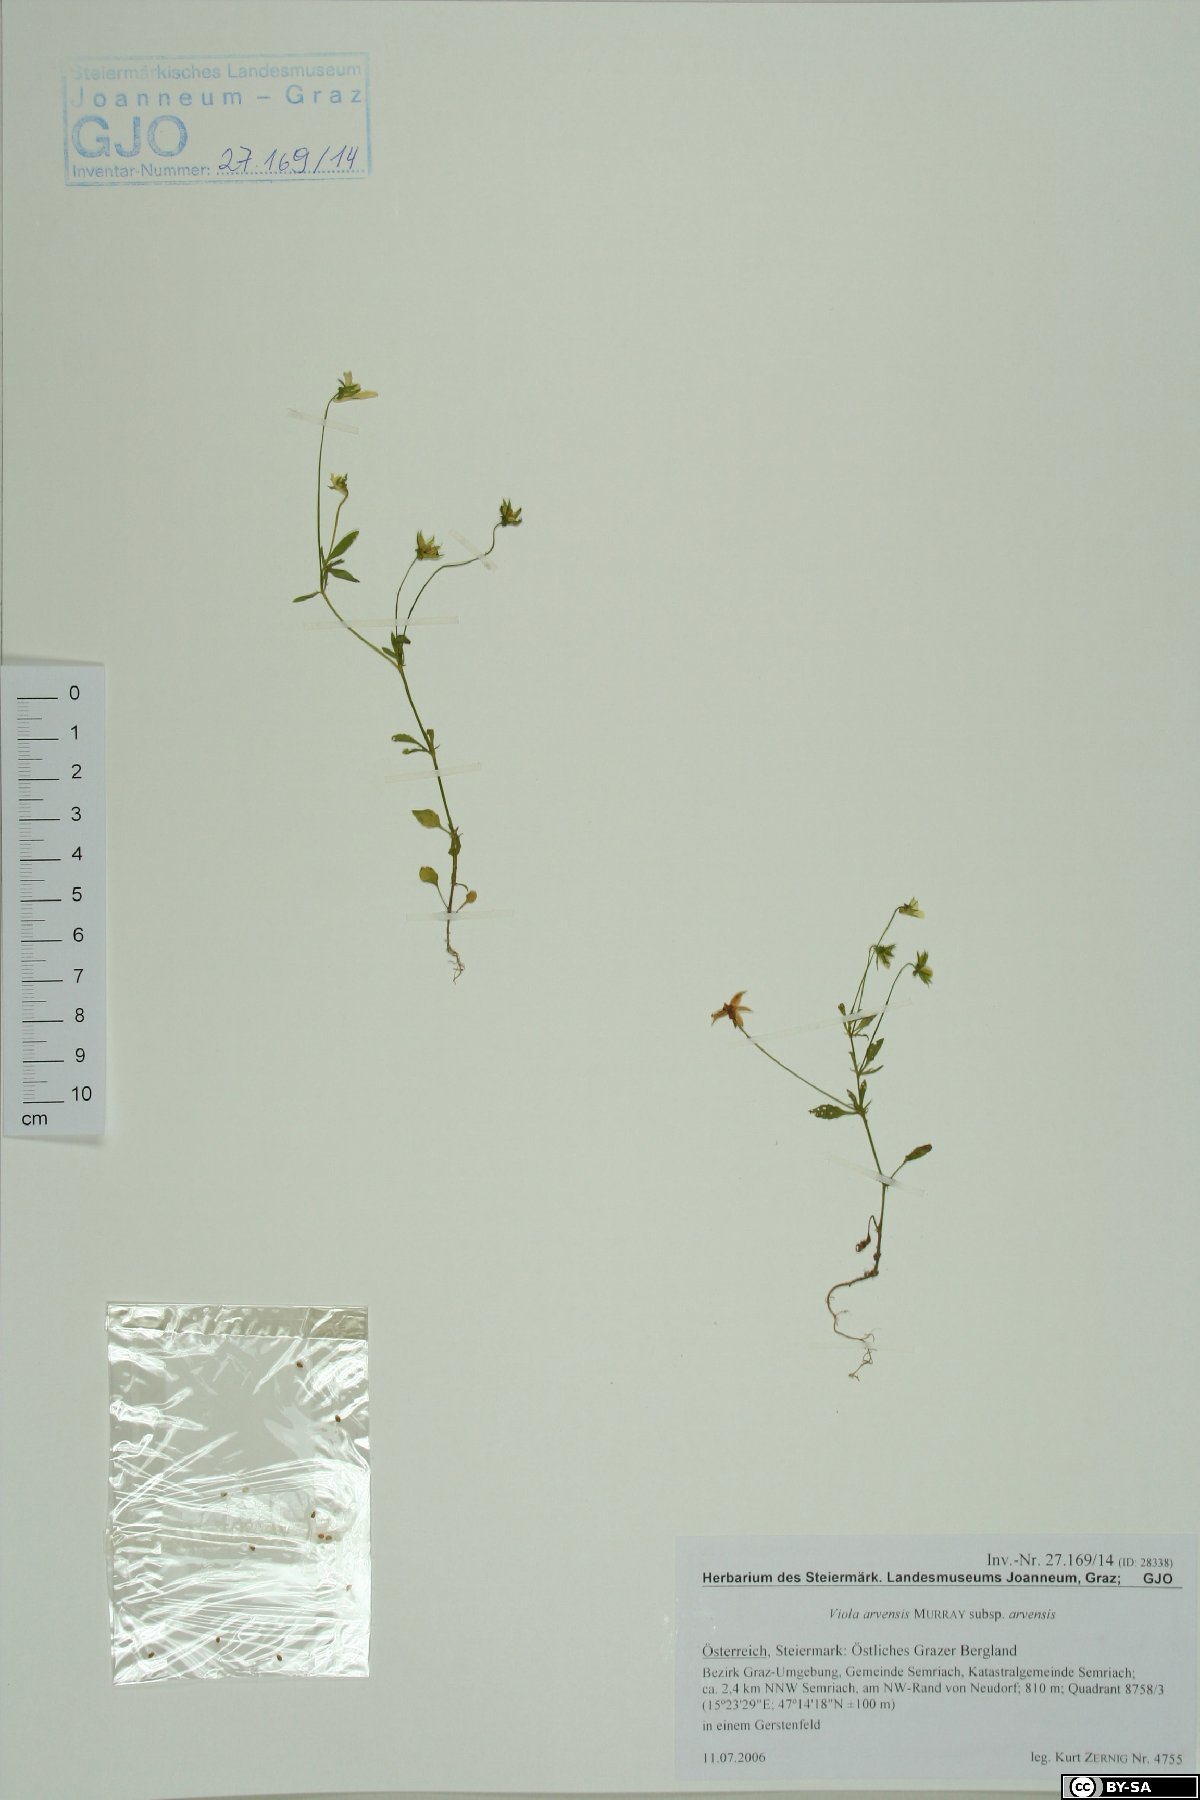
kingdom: Plantae
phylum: Tracheophyta
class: Magnoliopsida
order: Malpighiales
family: Violaceae
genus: Viola
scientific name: Viola arvensis
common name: Field pansy
